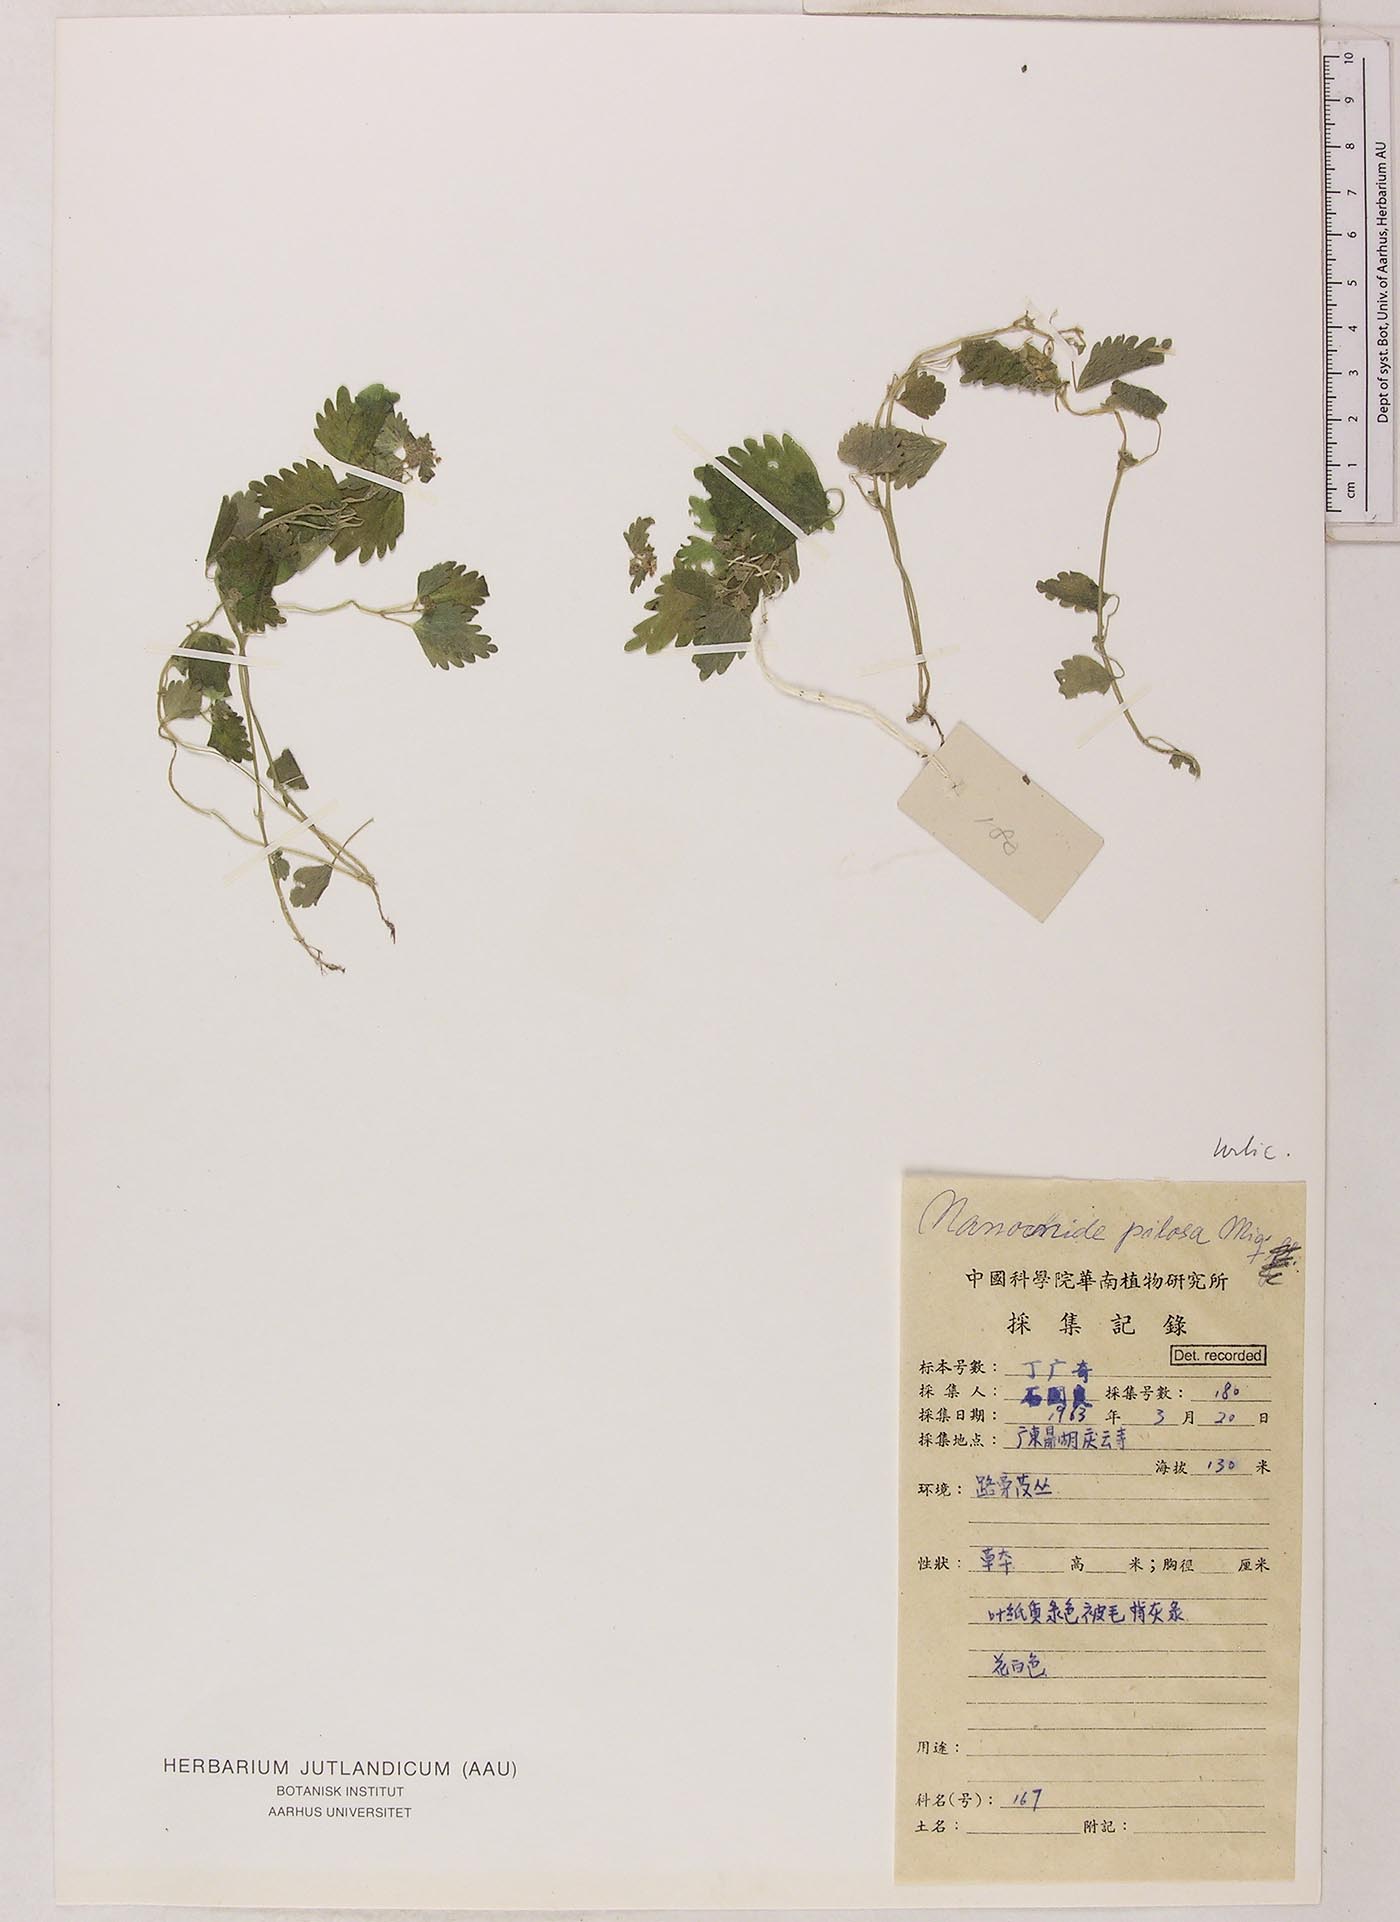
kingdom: Plantae
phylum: Tracheophyta
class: Magnoliopsida
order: Rosales
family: Urticaceae
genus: Nanocnide
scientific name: Nanocnide lobata
